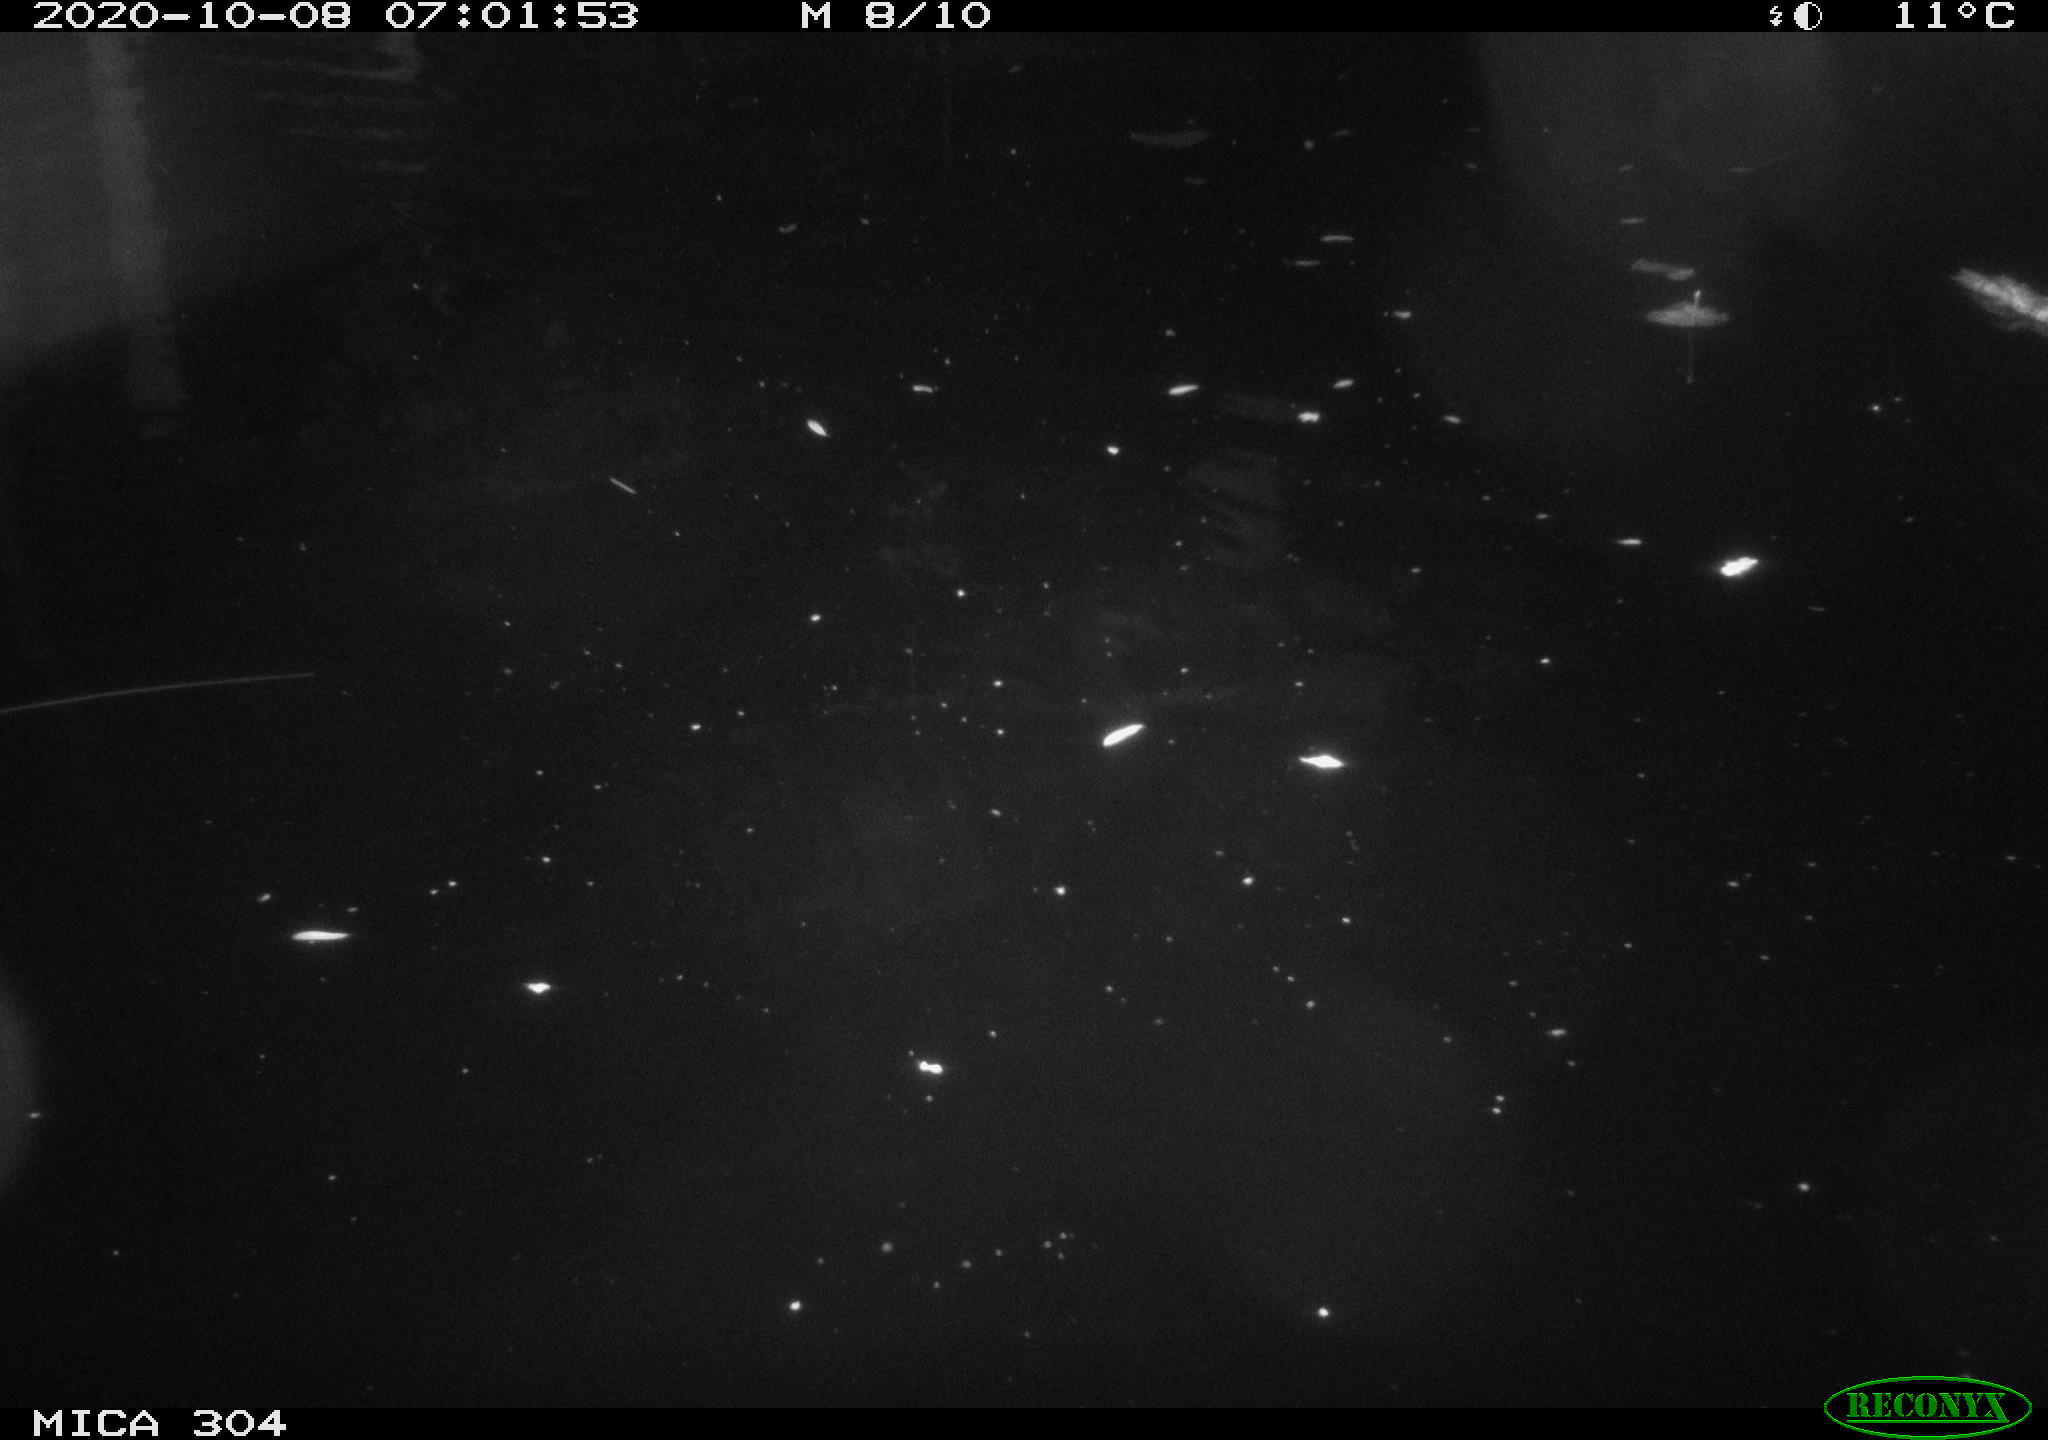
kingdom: Animalia
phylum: Chordata
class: Mammalia
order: Rodentia
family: Muridae
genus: Rattus
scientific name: Rattus norvegicus
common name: Brown rat
